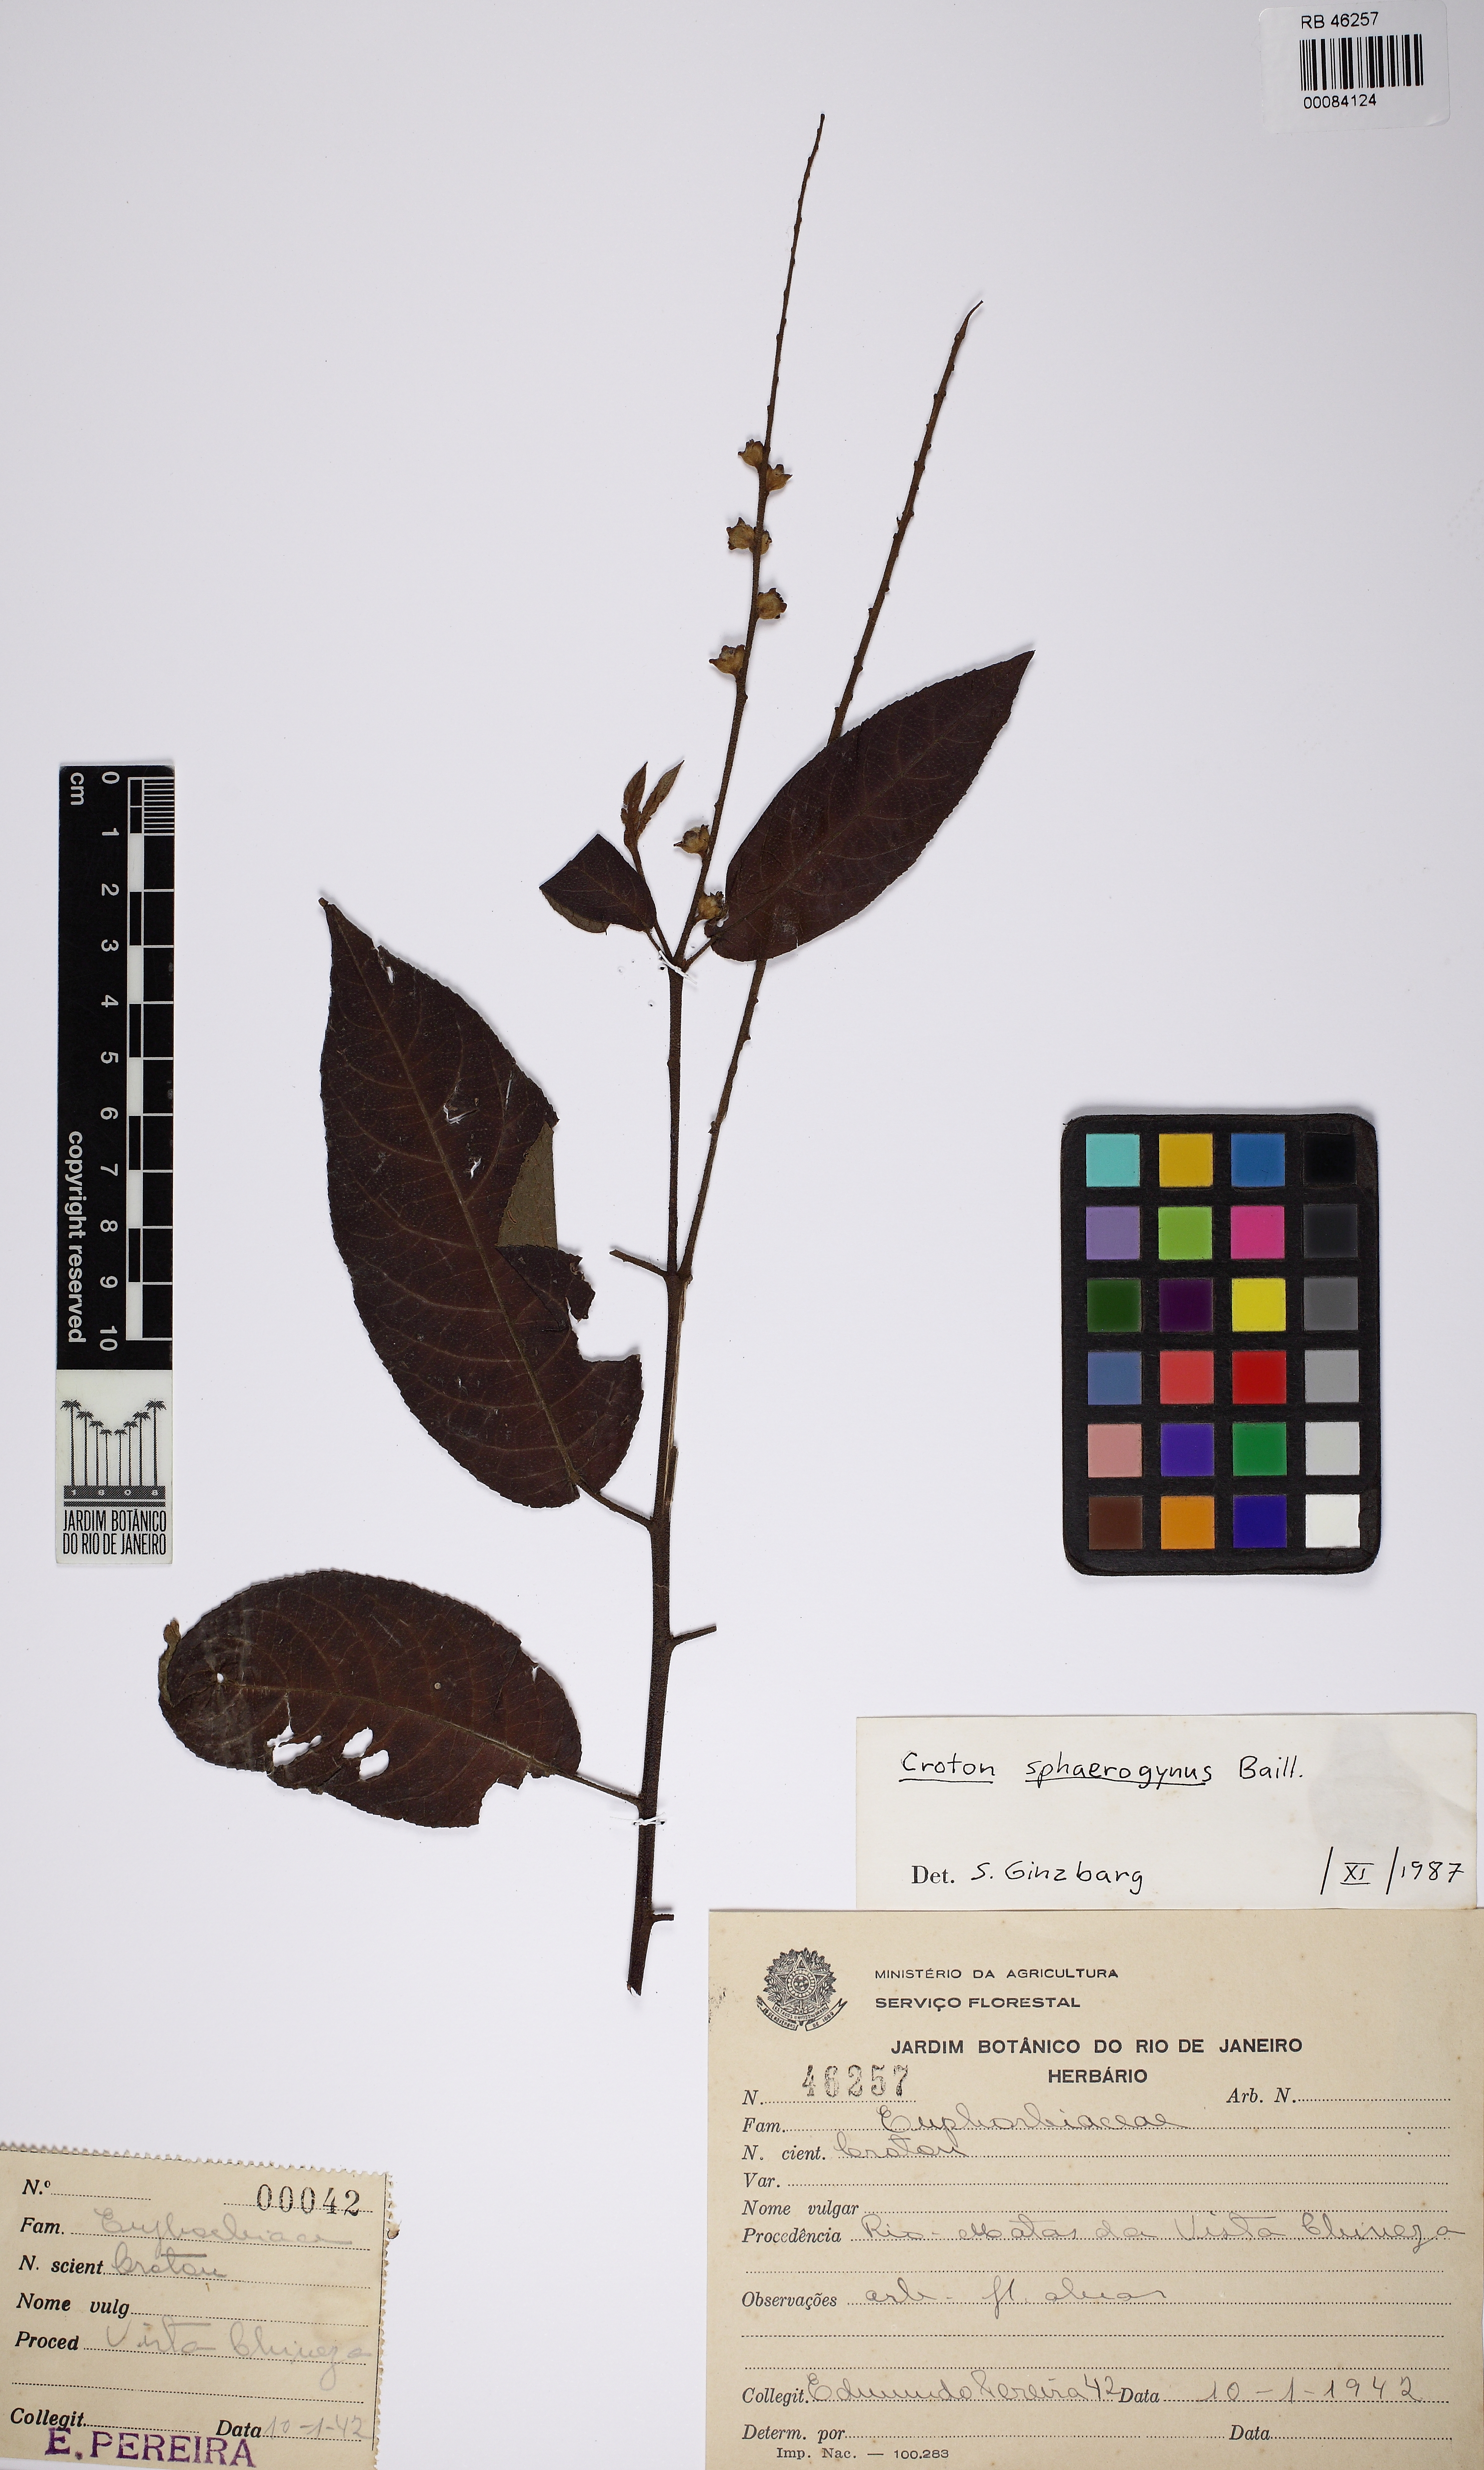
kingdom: Plantae
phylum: Tracheophyta
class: Magnoliopsida
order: Malpighiales
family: Euphorbiaceae
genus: Croton
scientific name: Croton sphaerogynus
